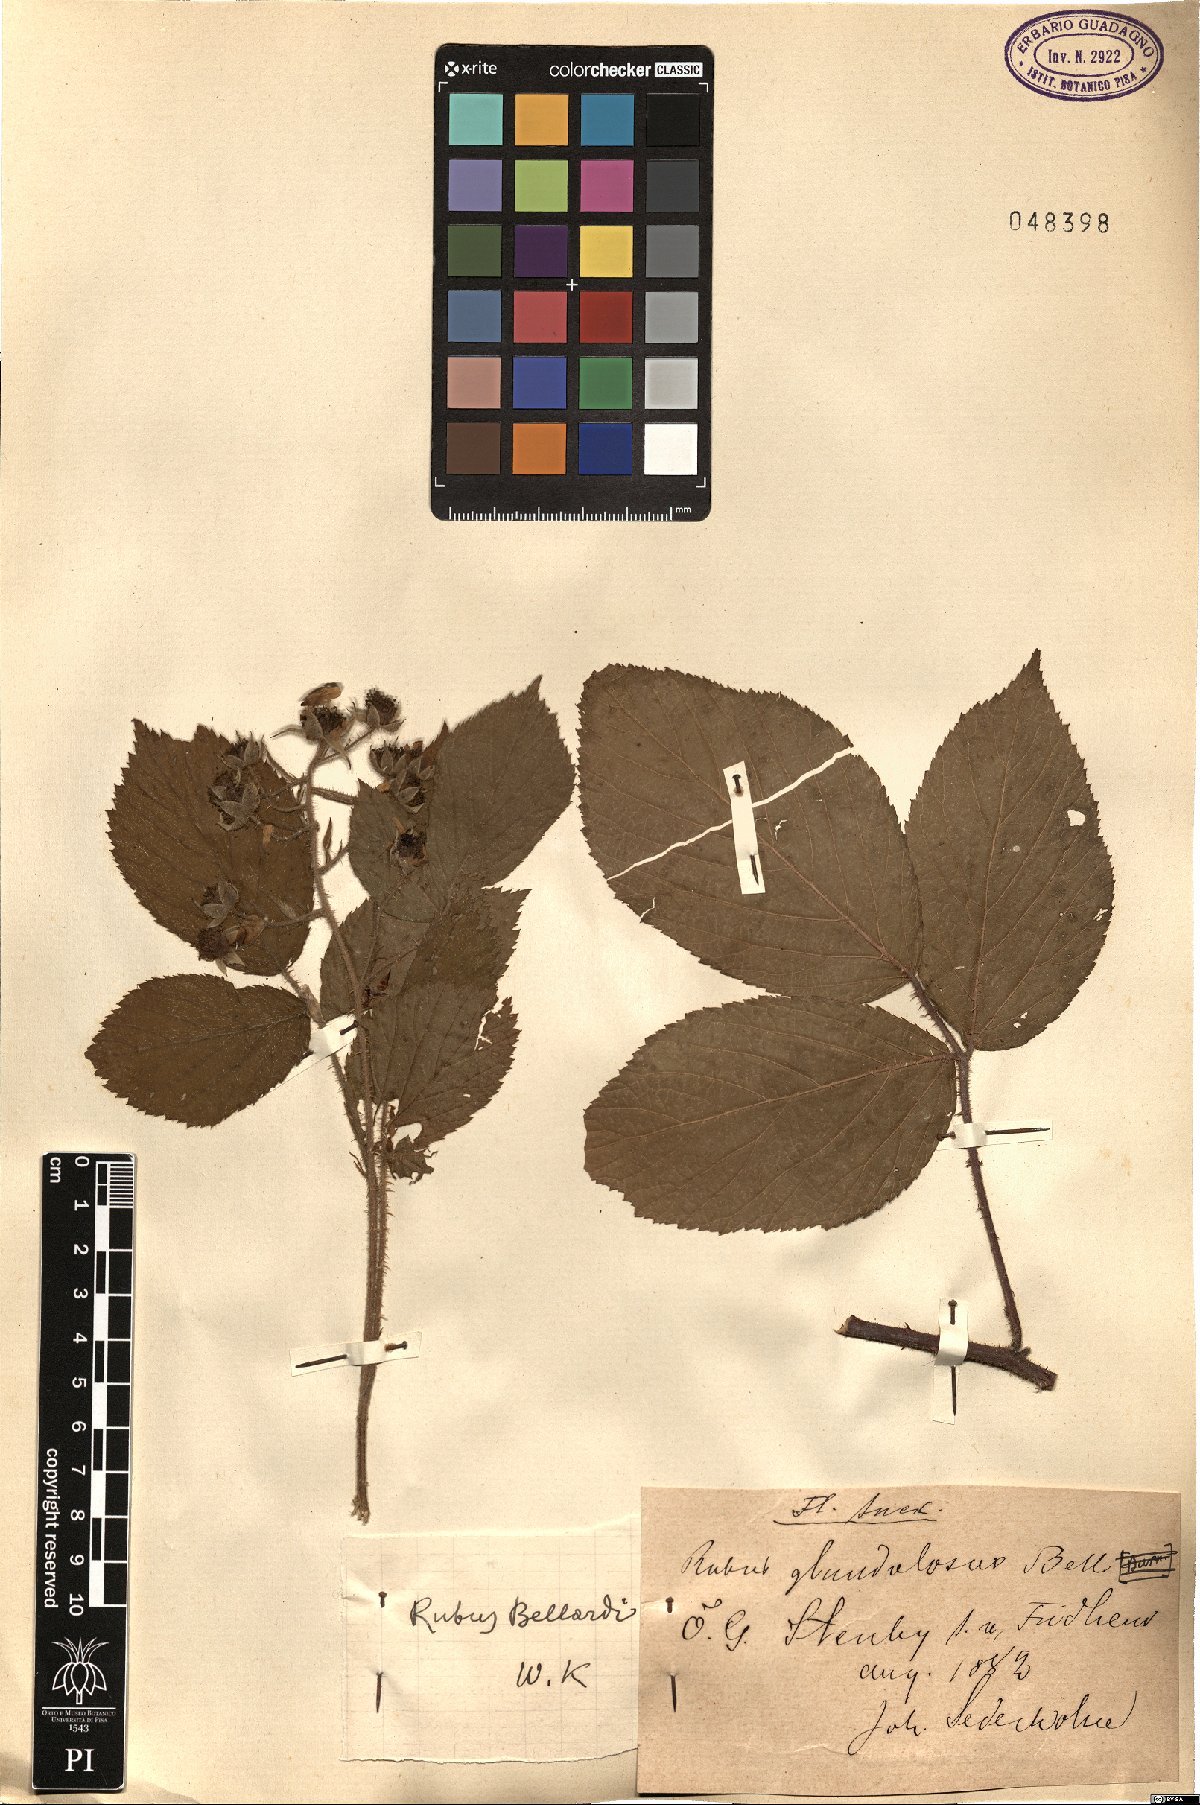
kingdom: Plantae
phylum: Tracheophyta
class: Magnoliopsida
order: Rosales
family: Rosaceae
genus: Rubus
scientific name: Rubus nigricans
